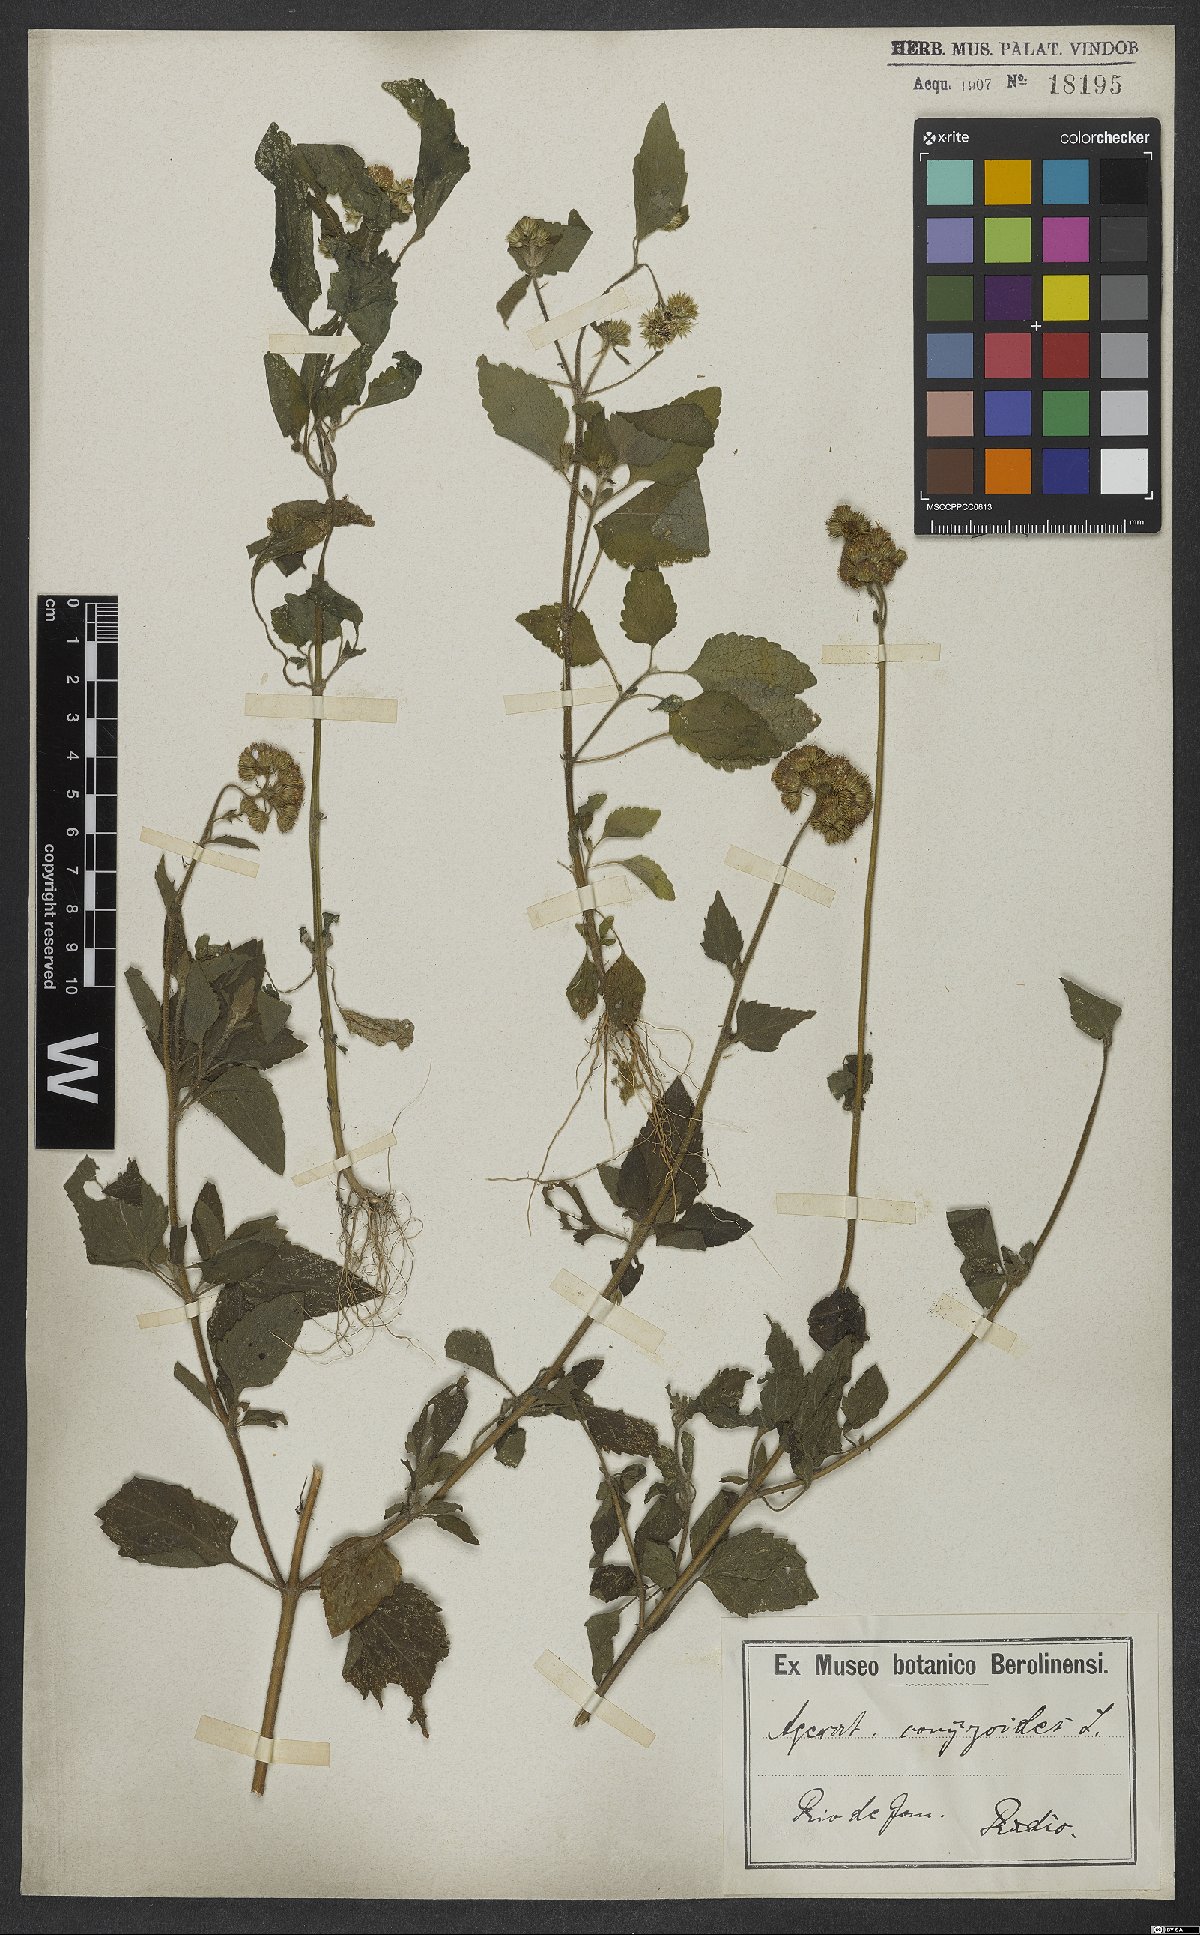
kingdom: Plantae
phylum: Tracheophyta
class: Magnoliopsida
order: Asterales
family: Asteraceae
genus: Ageratum
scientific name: Ageratum conyzoides
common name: Tropical whiteweed
